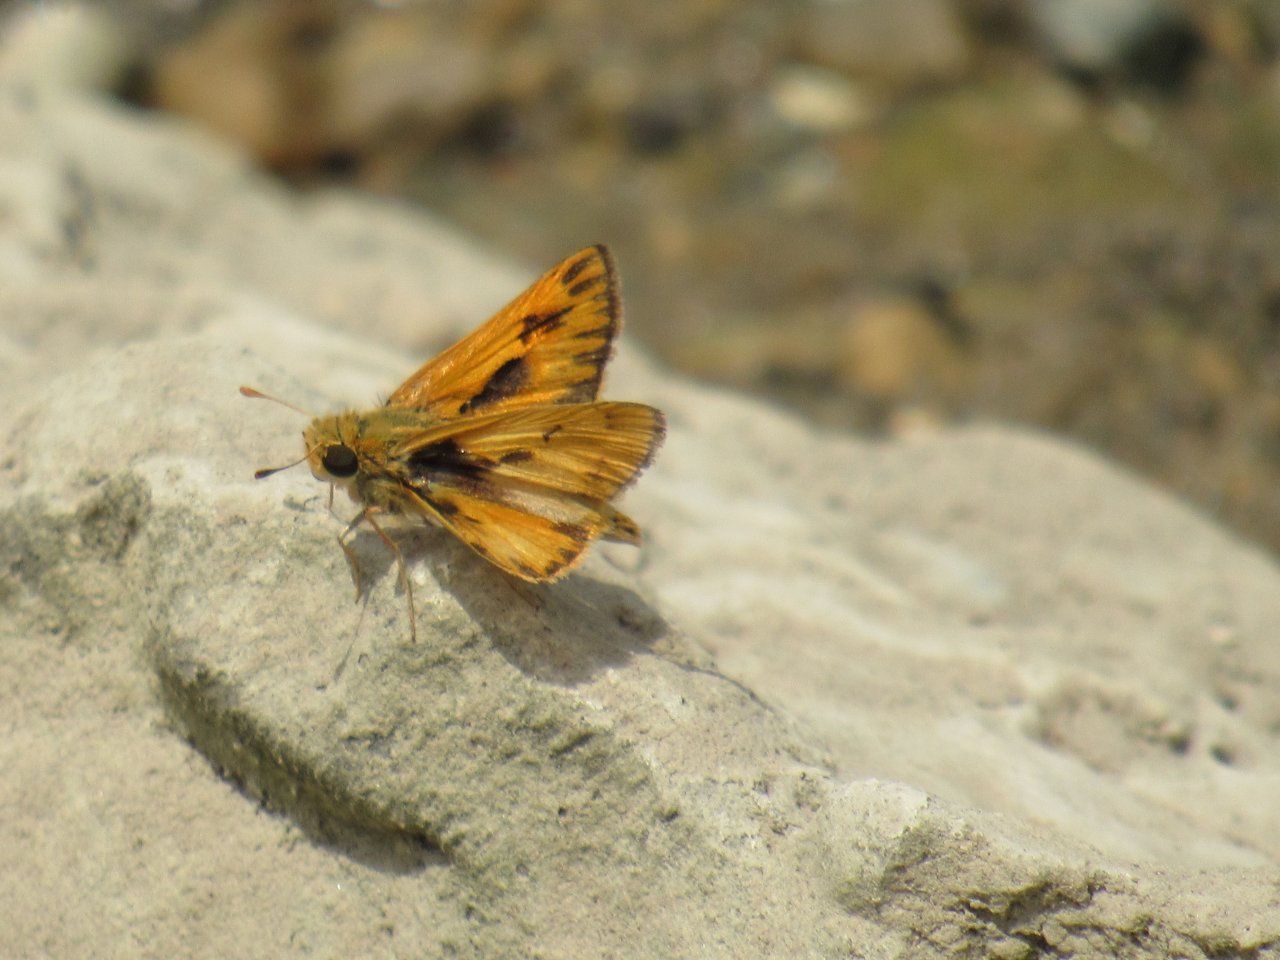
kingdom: Animalia
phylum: Arthropoda
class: Insecta
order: Lepidoptera
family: Hesperiidae
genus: Hylephila
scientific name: Hylephila phyleus
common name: Fiery Skipper
